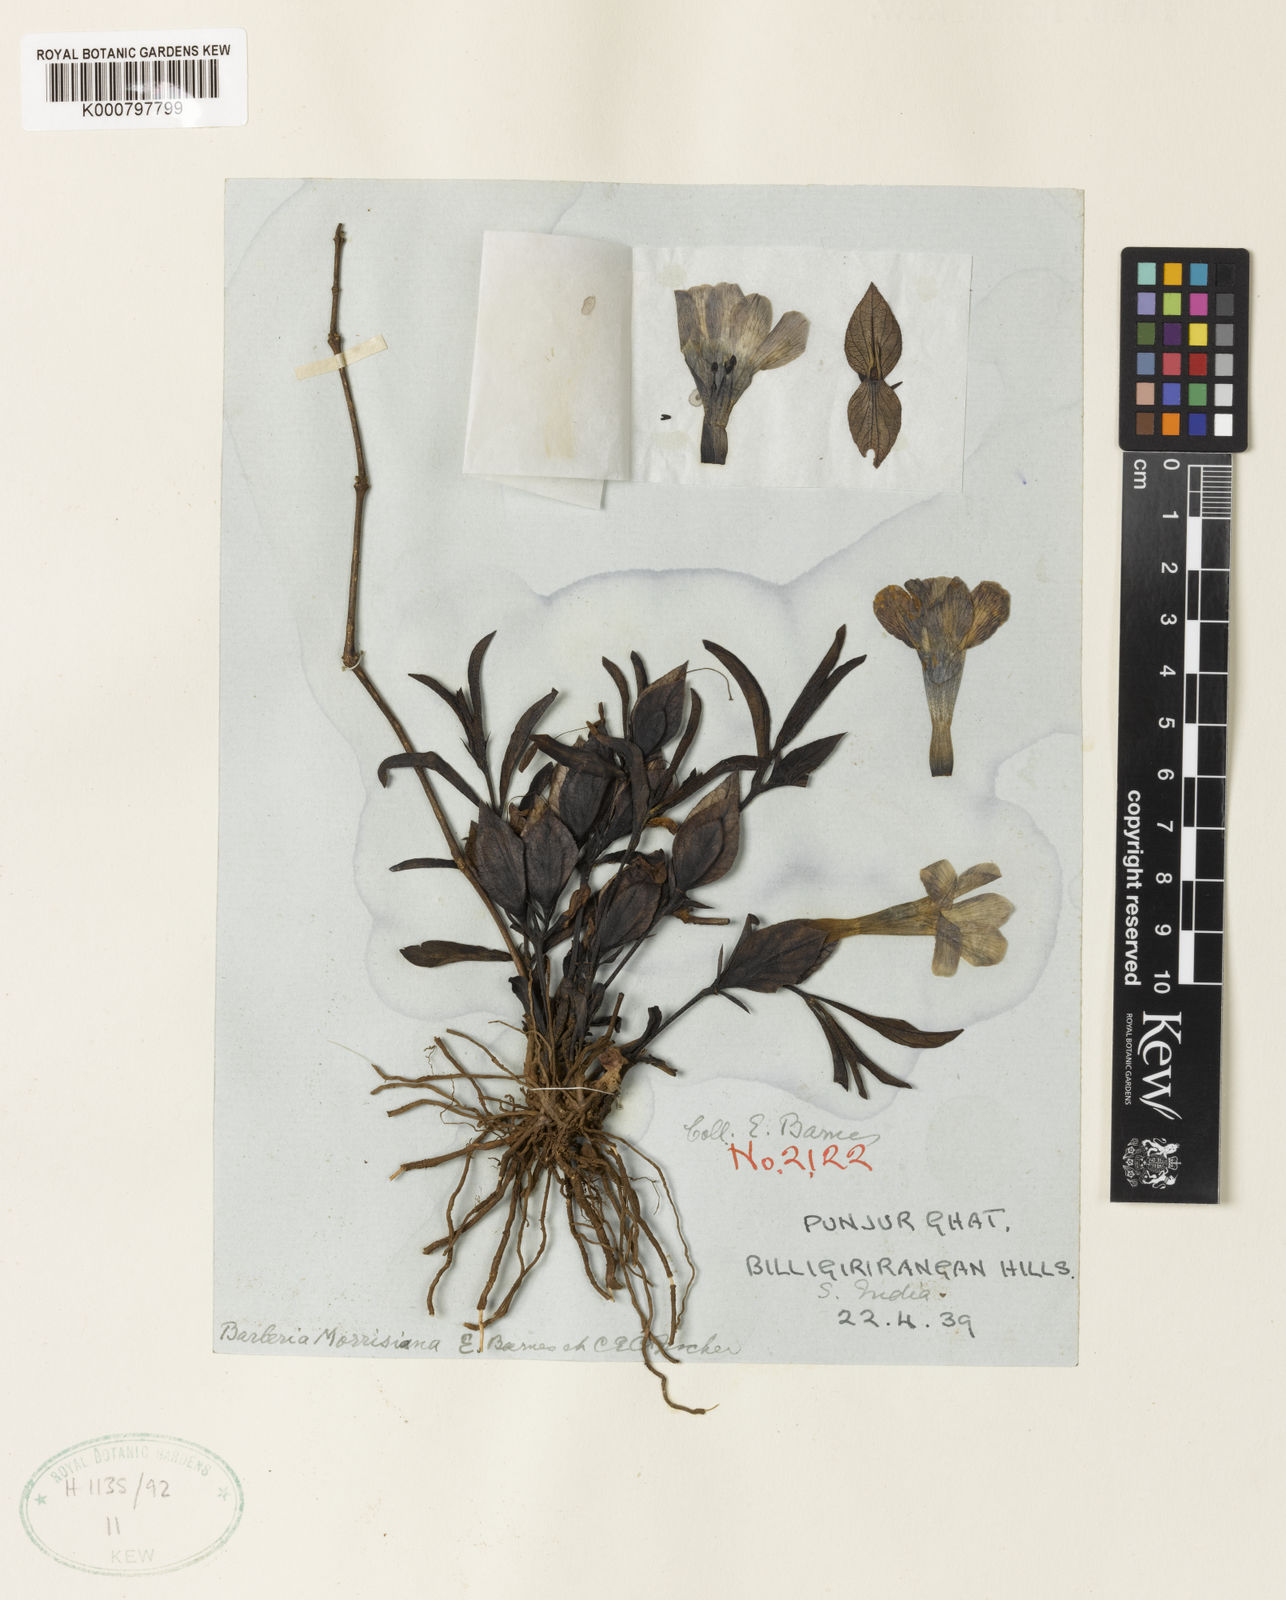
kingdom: Plantae
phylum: Tracheophyta
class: Magnoliopsida
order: Lamiales
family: Acanthaceae
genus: Barleria
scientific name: Barleria montana
